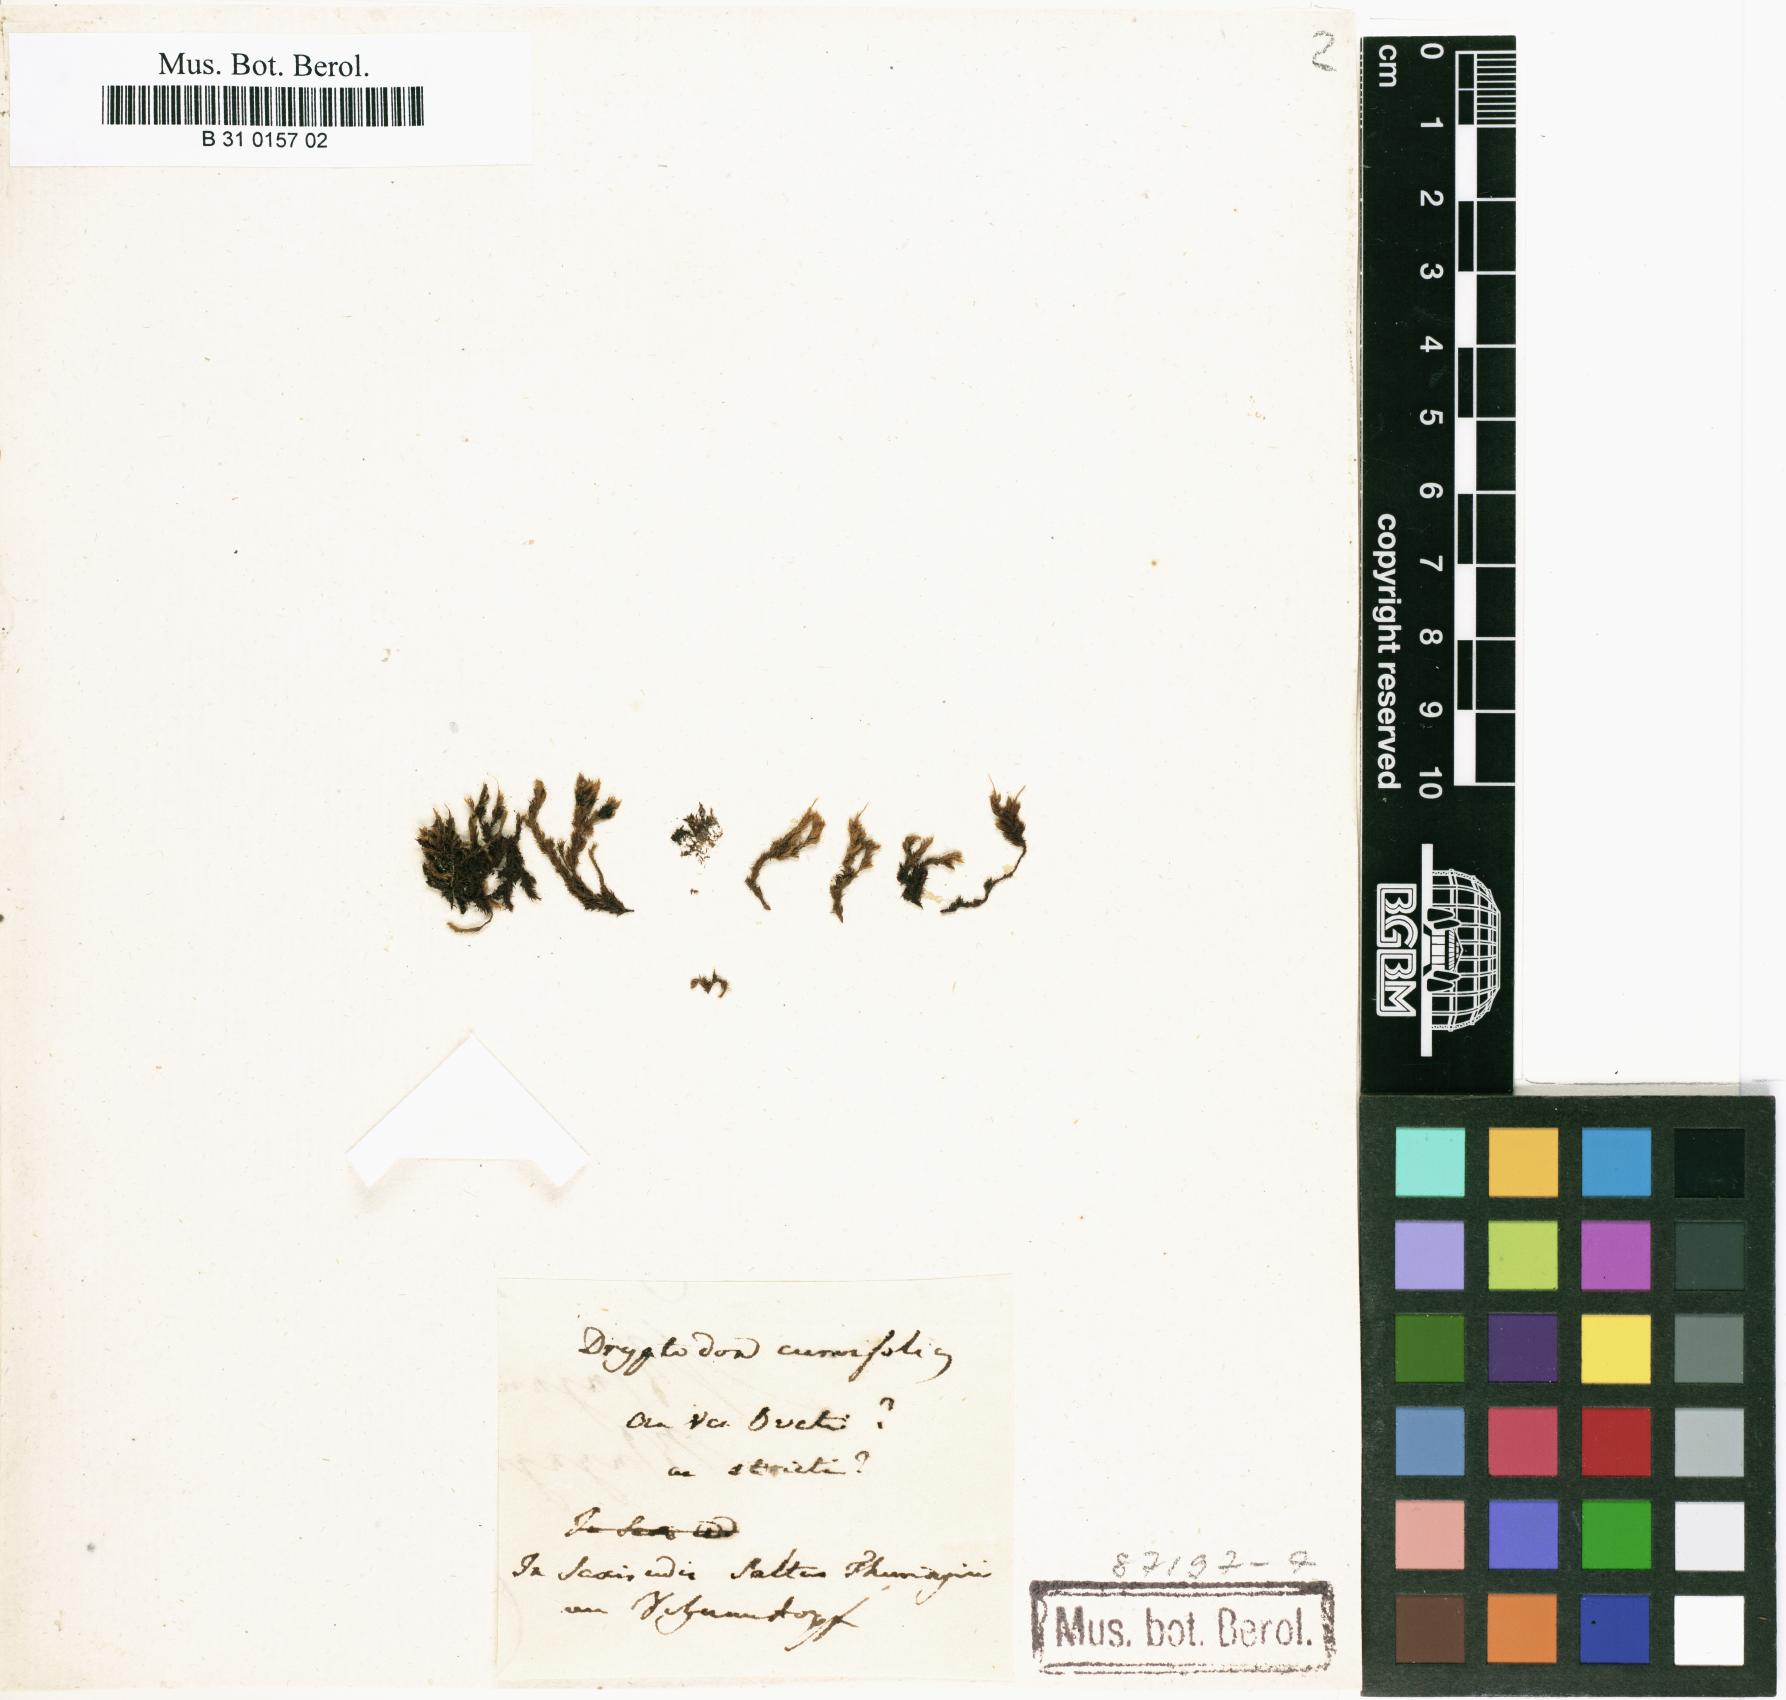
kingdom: Plantae
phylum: Bryophyta
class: Bryopsida
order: Pottiales
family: Pottiaceae
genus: Didymodon
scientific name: Didymodon rigidulus
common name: Rigid beard-moss
